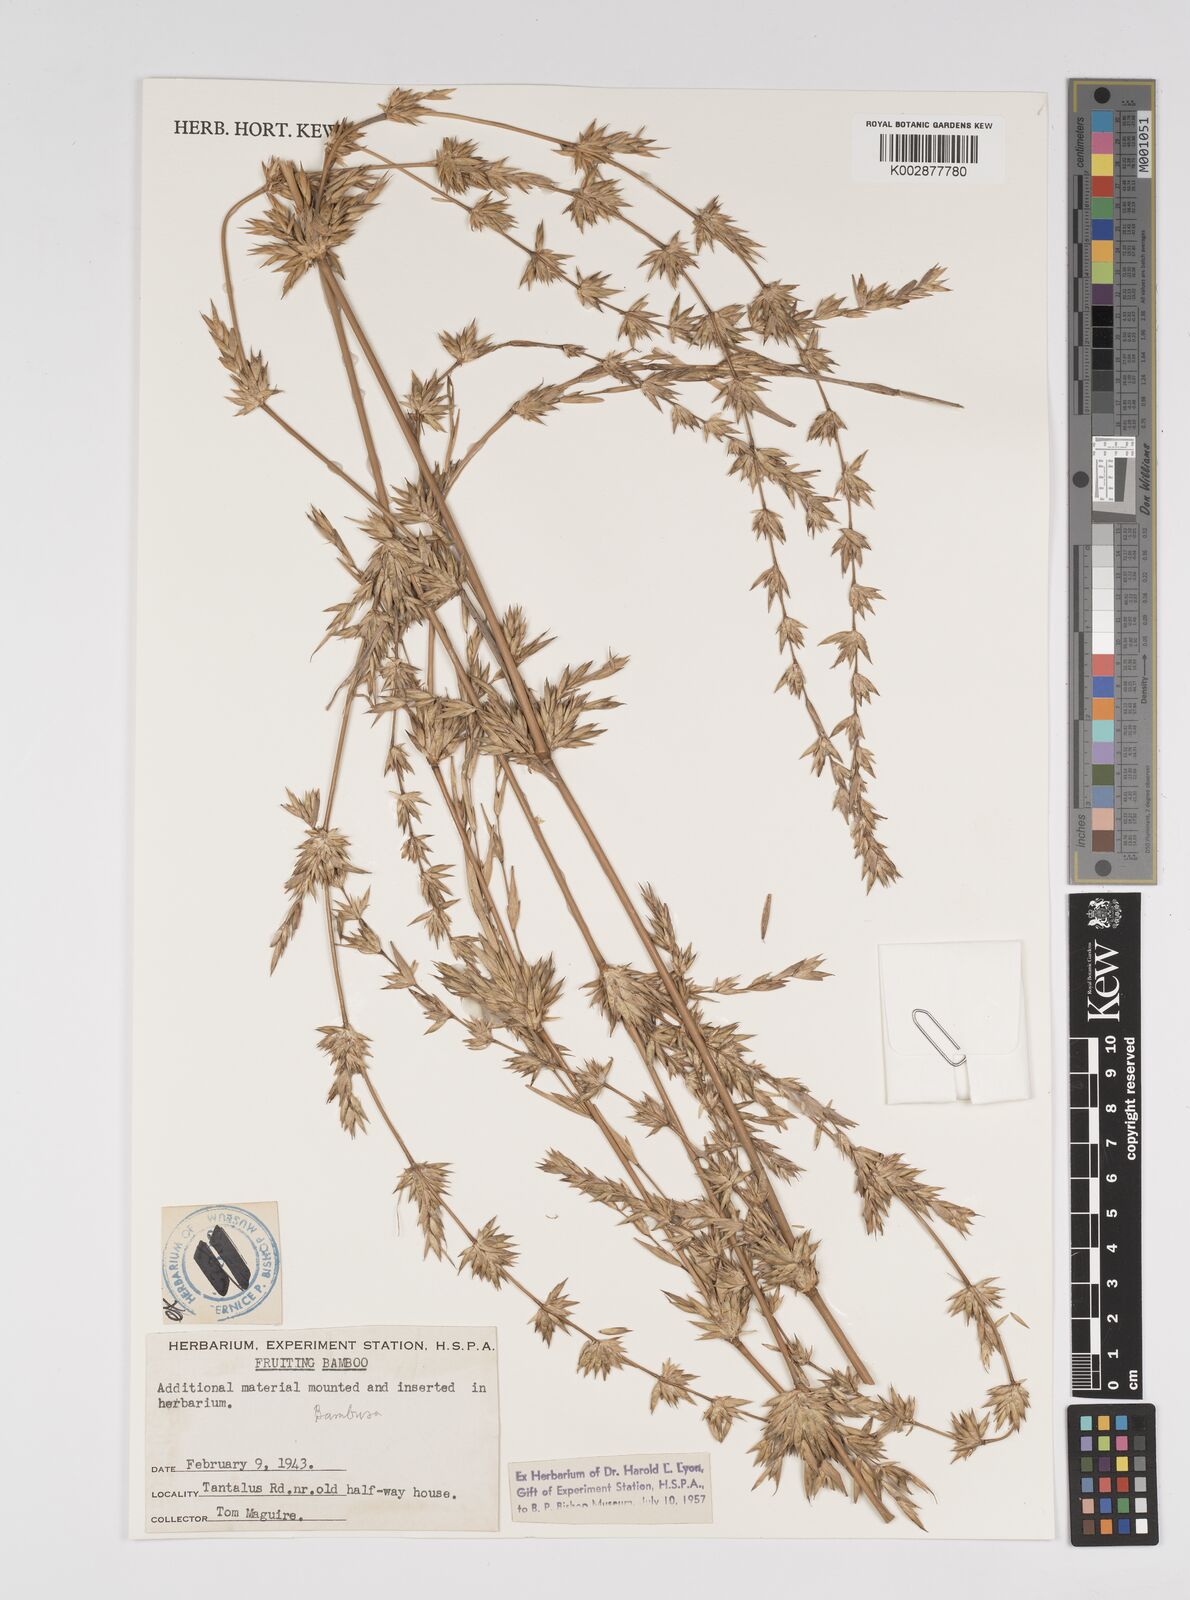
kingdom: Plantae
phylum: Tracheophyta
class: Liliopsida
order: Poales
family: Poaceae
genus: Bambusa
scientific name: Bambusa
